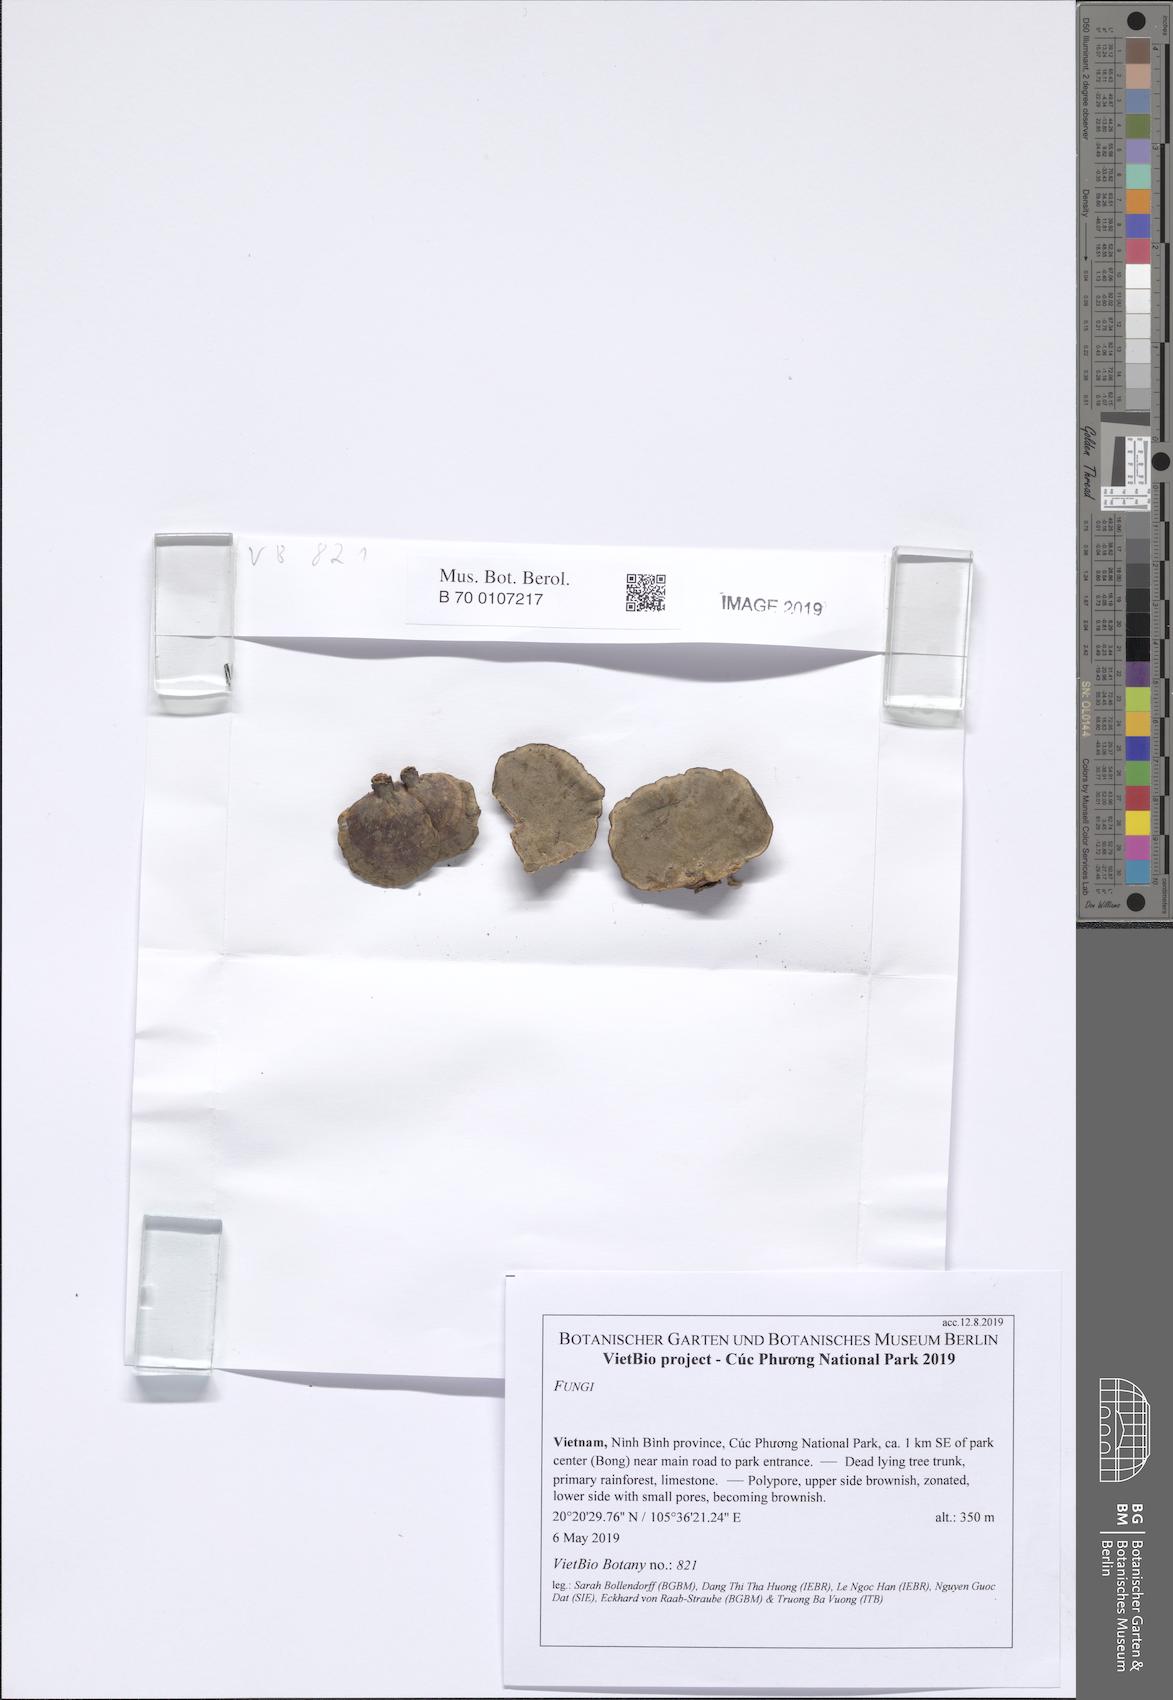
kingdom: Fungi
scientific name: Fungi
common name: Fungi
